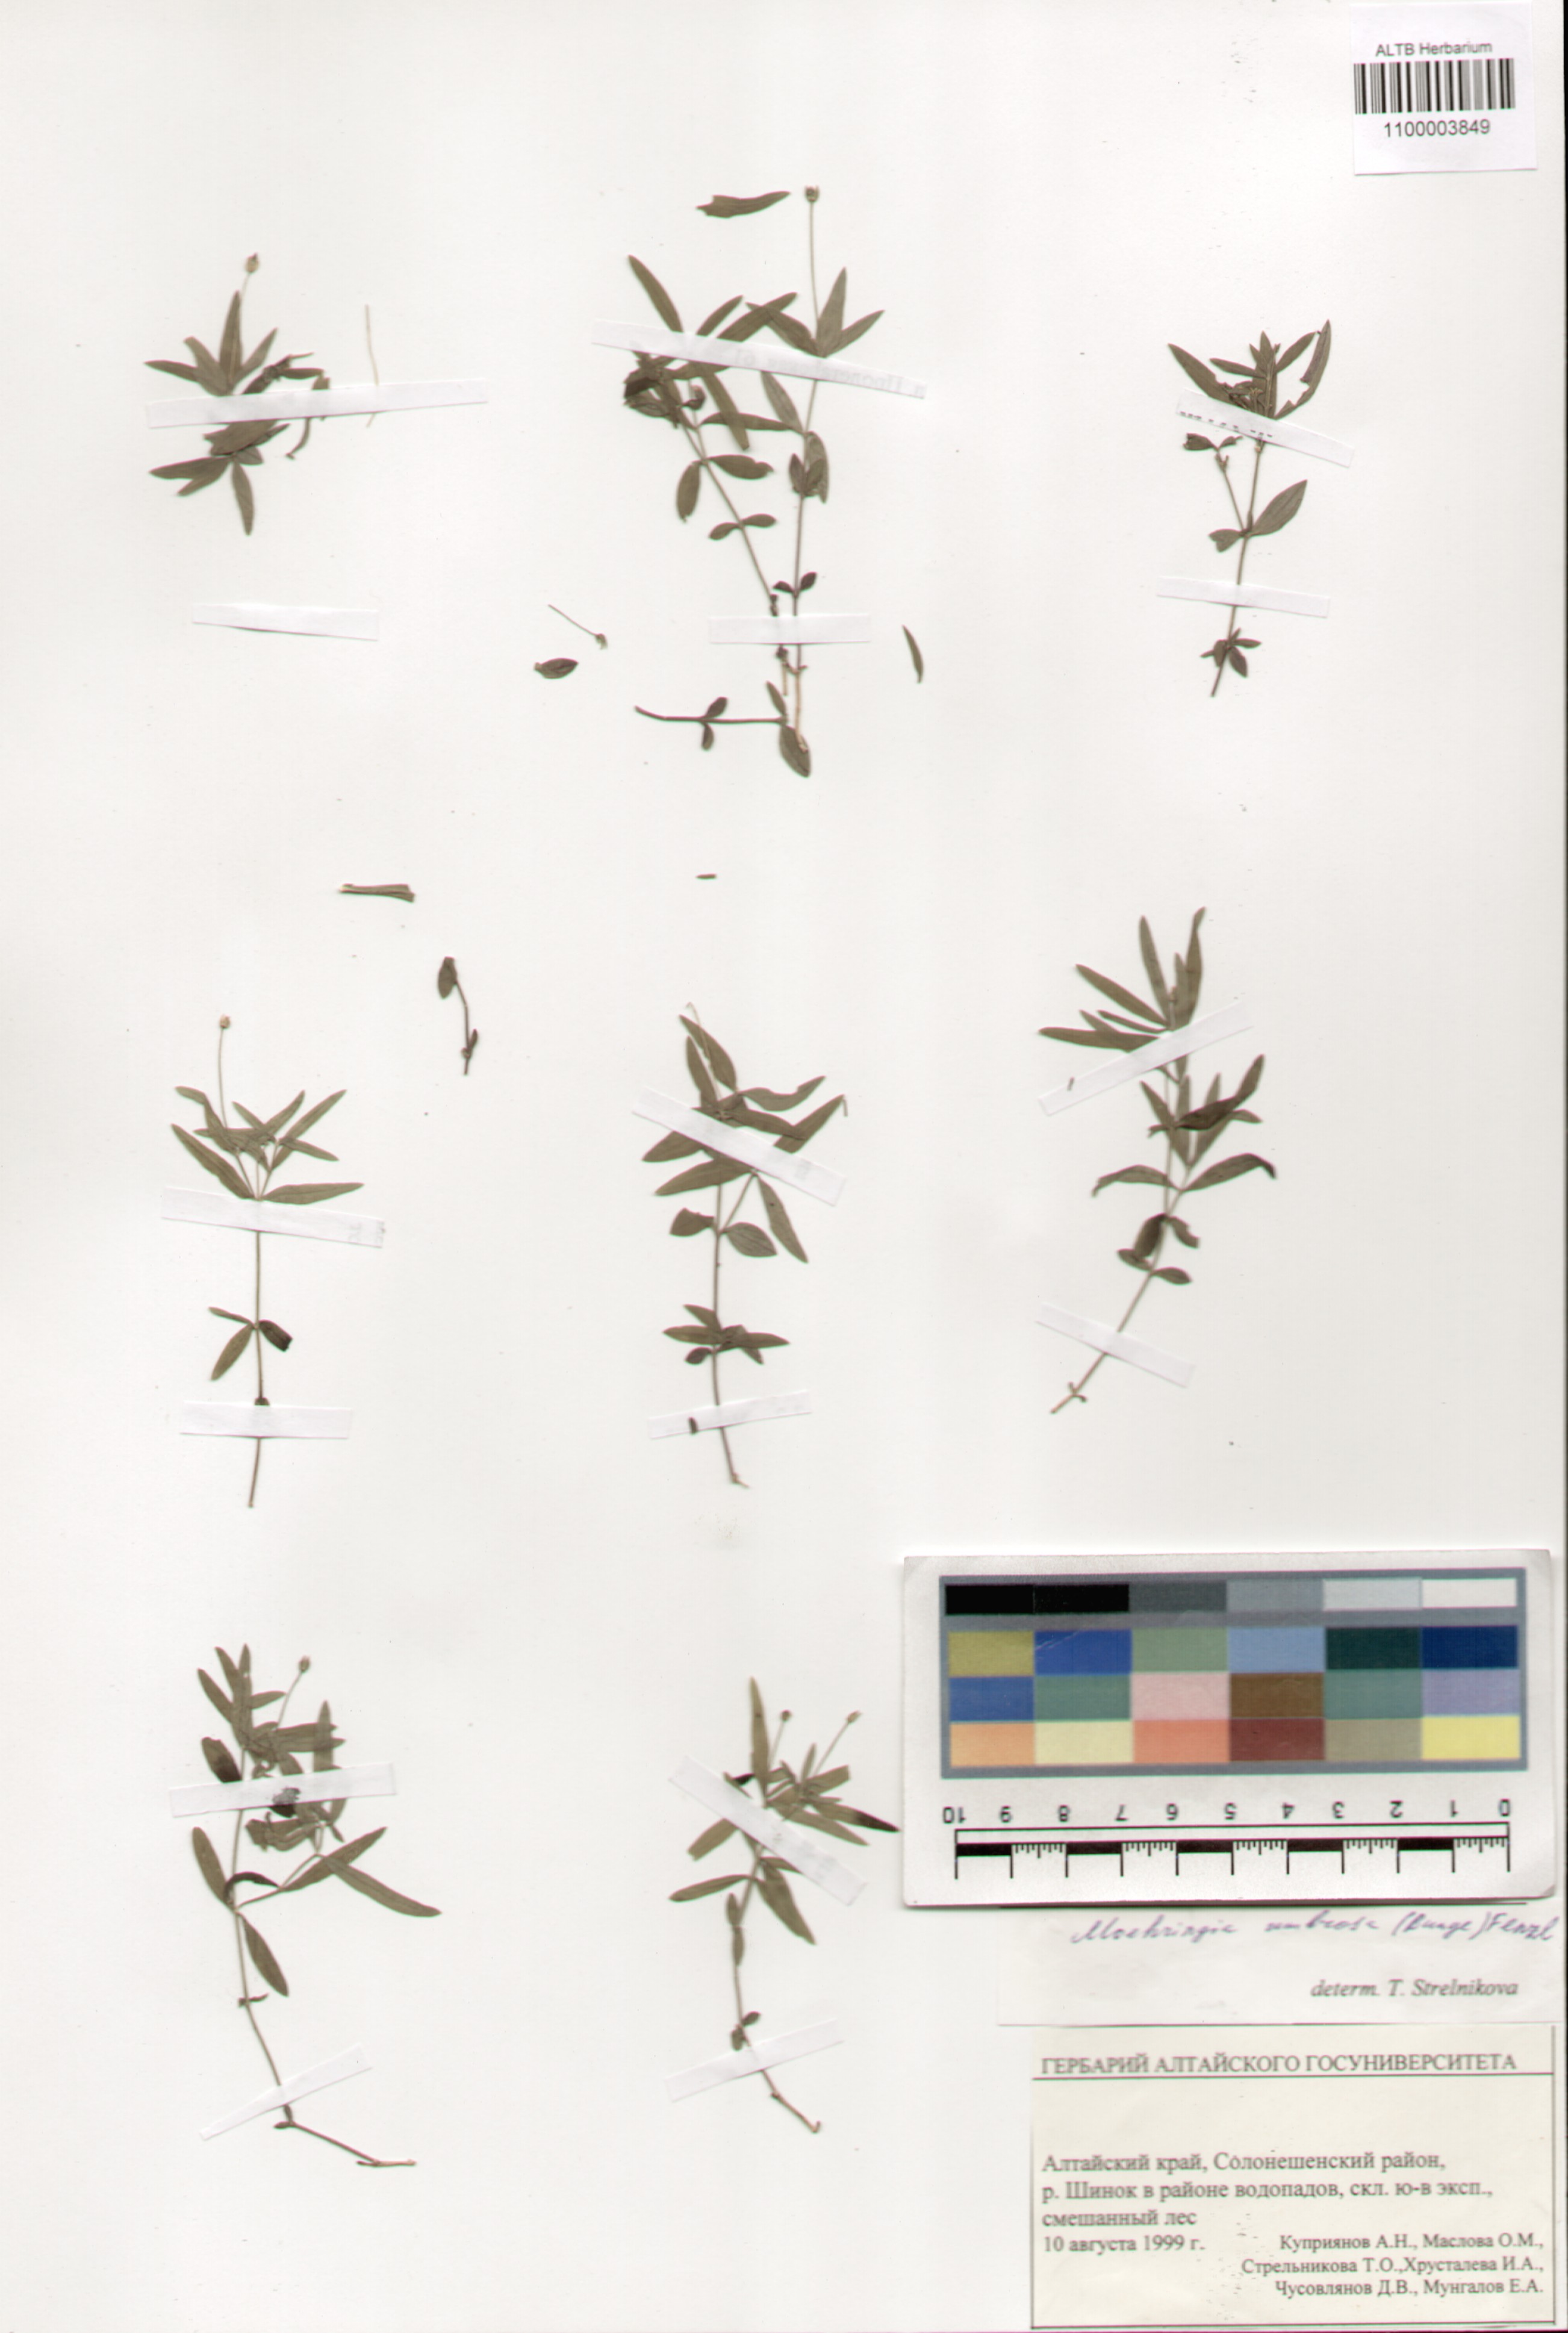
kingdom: Plantae
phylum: Tracheophyta
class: Magnoliopsida
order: Caryophyllales
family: Caryophyllaceae
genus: Moehringia
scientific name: Moehringia umbrosa
